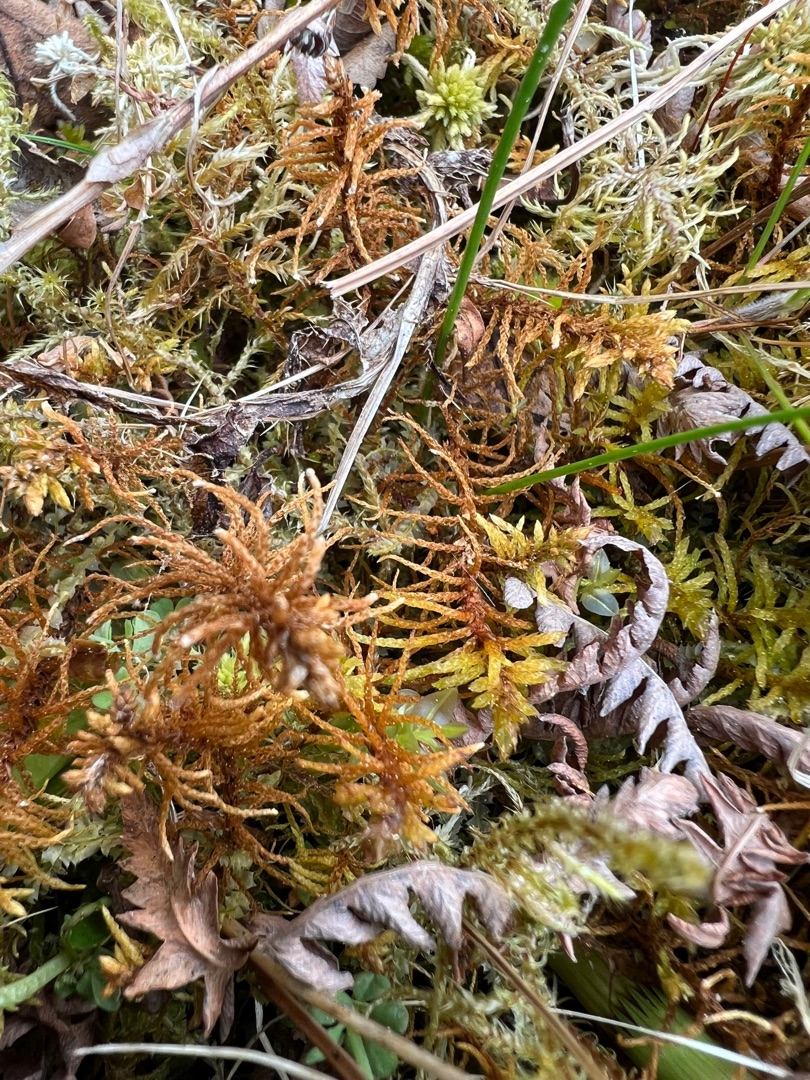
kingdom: Plantae
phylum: Bryophyta
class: Bryopsida
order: Hypnales
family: Helodiaceae
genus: Helodium
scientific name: Helodium blandowii
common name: Kær-gyldenmos
